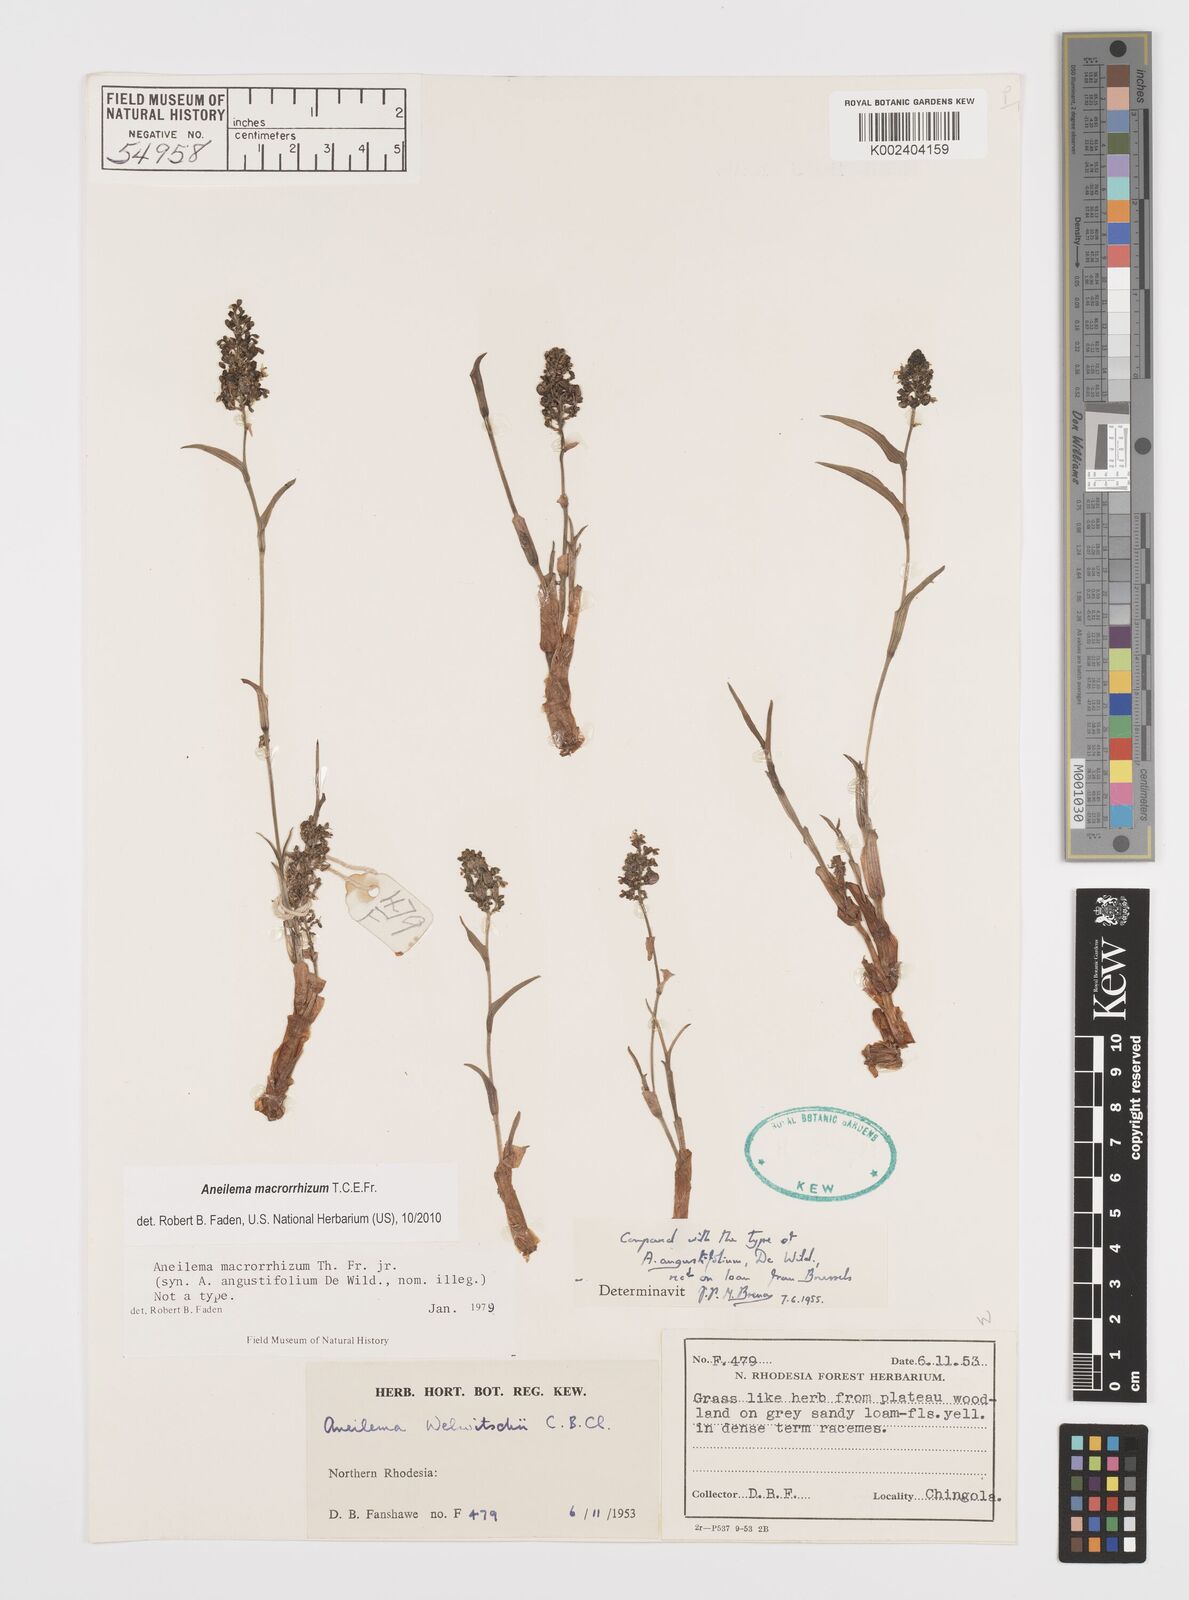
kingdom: Plantae
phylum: Tracheophyta
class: Liliopsida
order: Commelinales
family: Commelinaceae
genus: Aneilema
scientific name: Aneilema macrorrhizum
